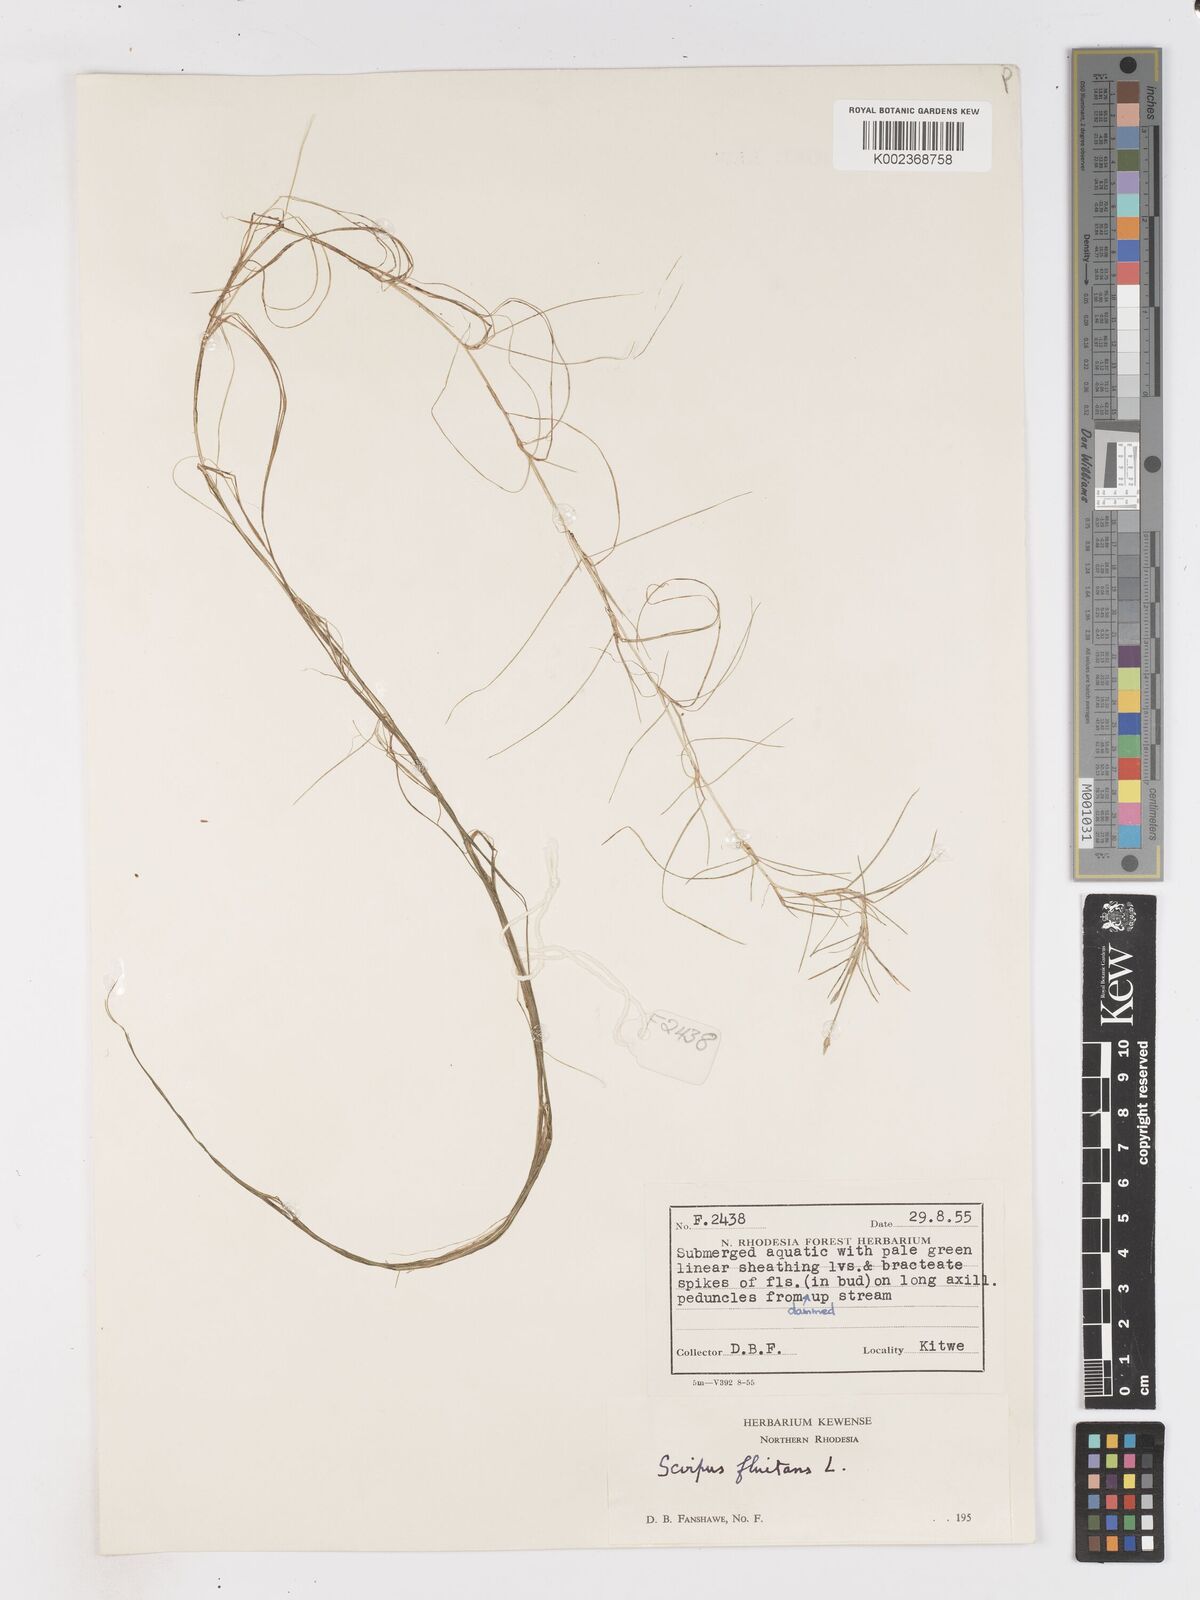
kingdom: Plantae
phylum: Tracheophyta
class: Liliopsida
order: Poales
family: Cyperaceae
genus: Isolepis
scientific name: Isolepis fluitans
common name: Floating club-rush
